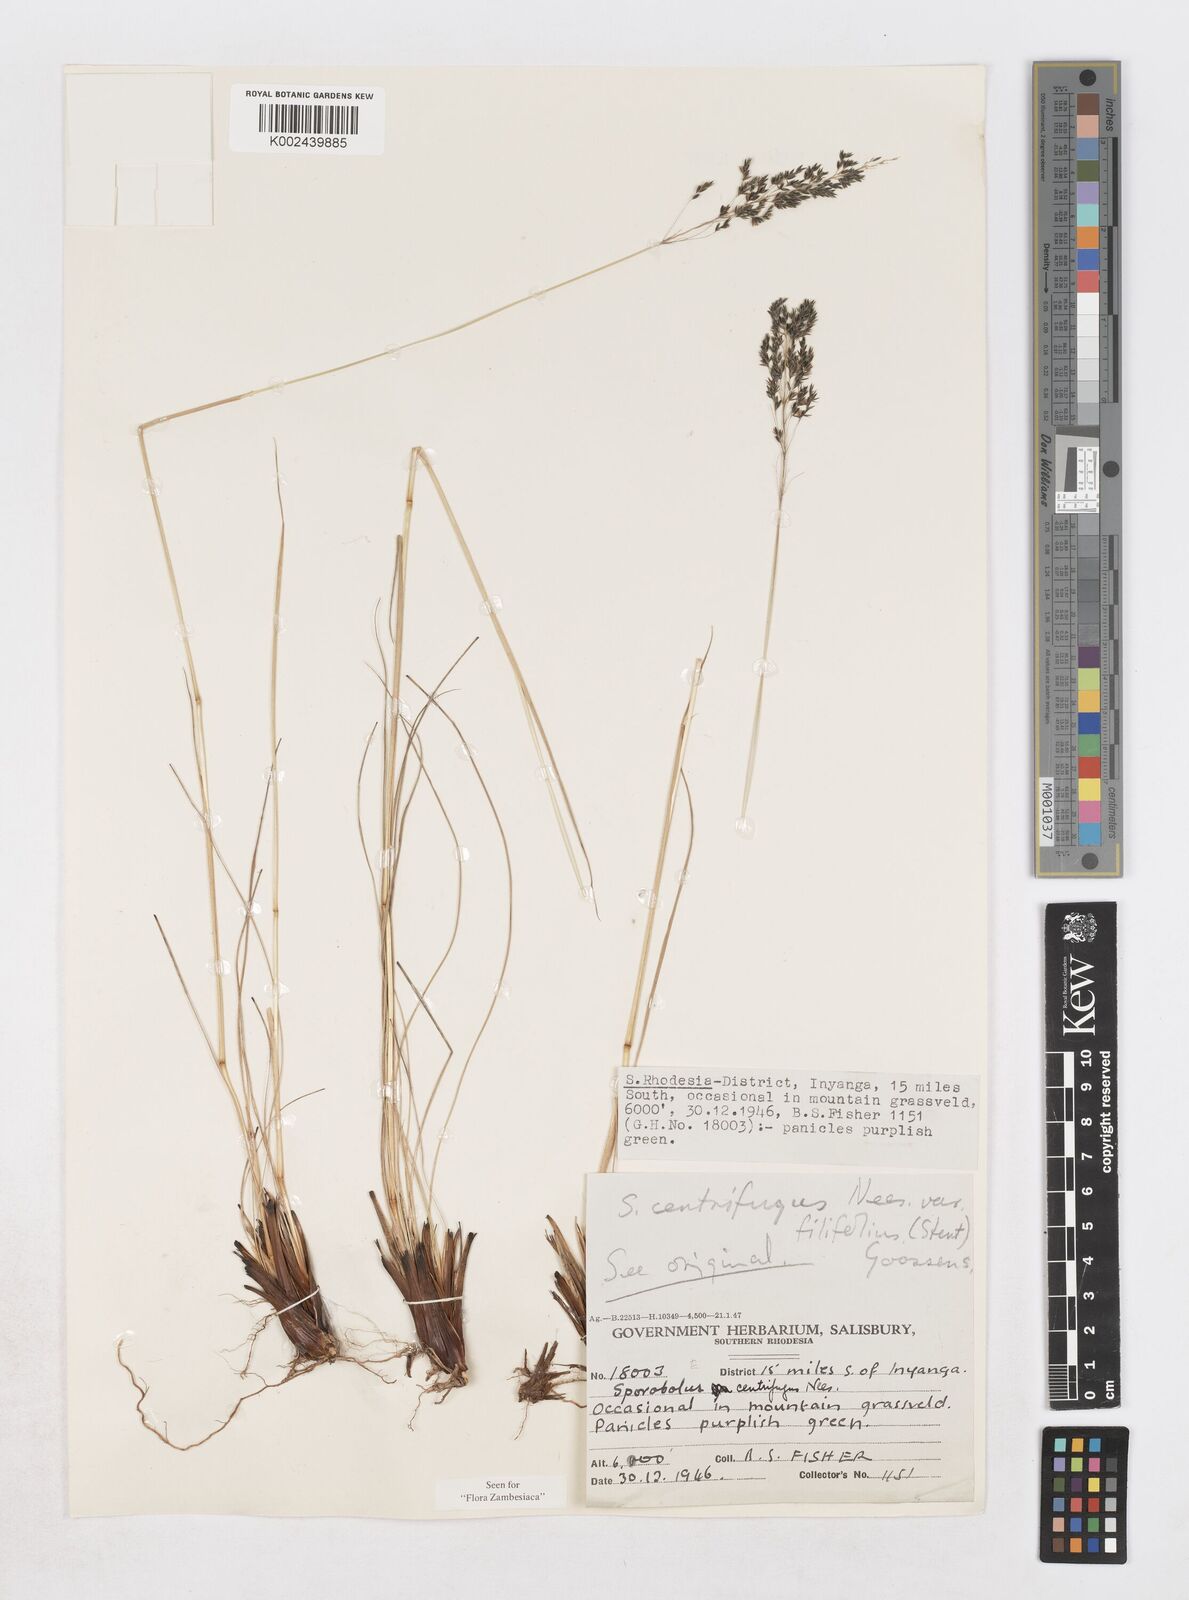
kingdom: Plantae
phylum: Tracheophyta
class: Liliopsida
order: Poales
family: Poaceae
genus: Sporobolus
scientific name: Sporobolus centrifugus
